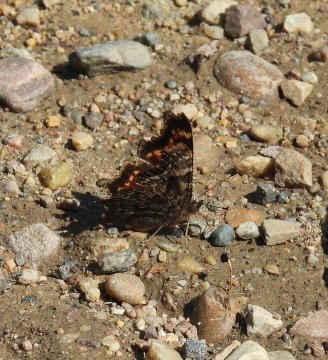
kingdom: Animalia
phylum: Arthropoda
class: Insecta
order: Lepidoptera
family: Nymphalidae
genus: Polygonia
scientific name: Polygonia faunus
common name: Green Comma
